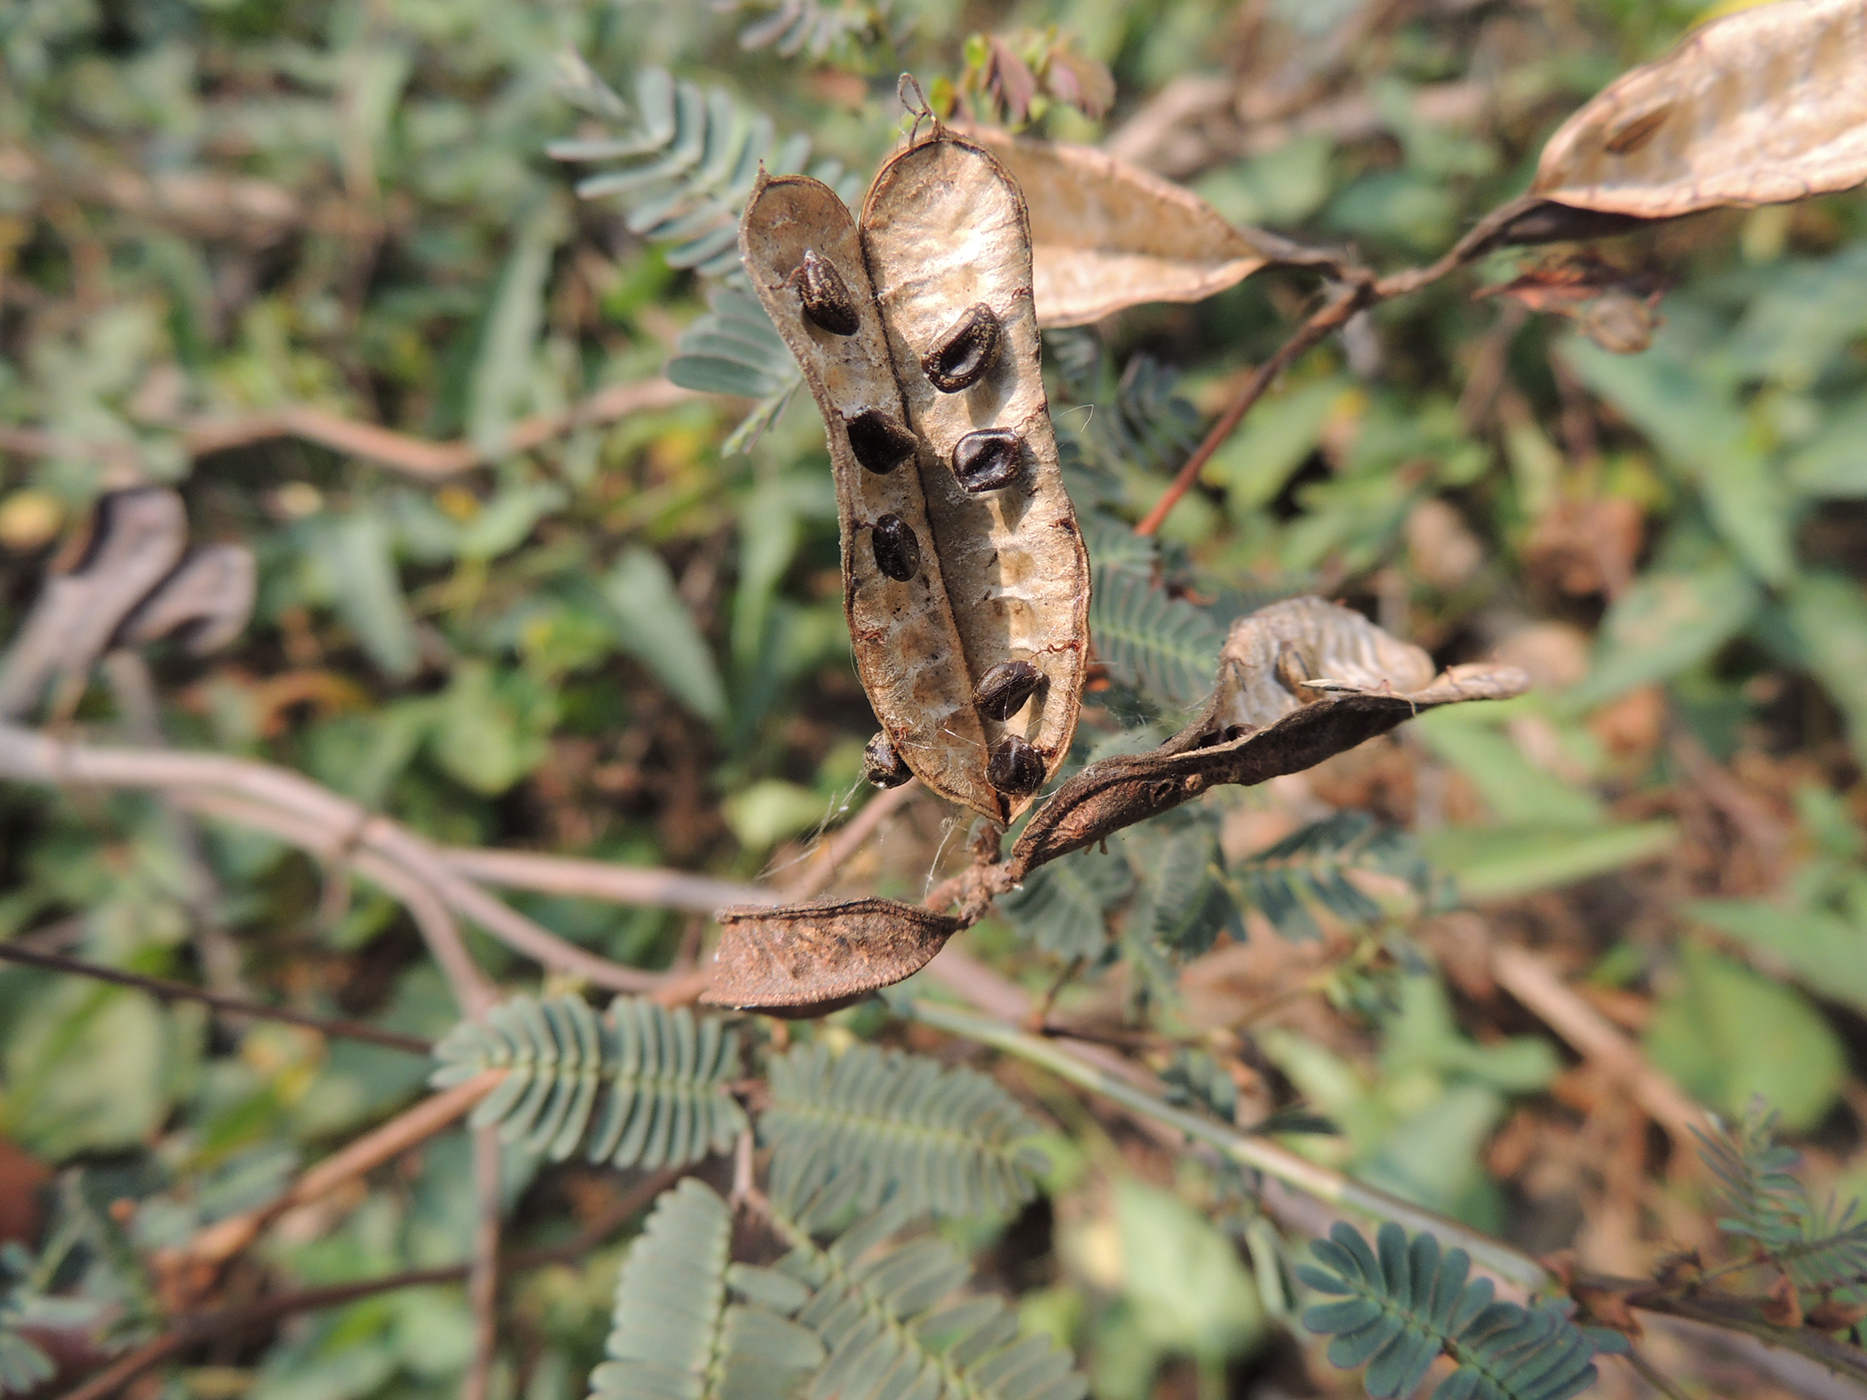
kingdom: Plantae
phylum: Tracheophyta
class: Magnoliopsida
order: Fabales
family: Fabaceae
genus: Neptunia
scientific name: Neptunia javanica
